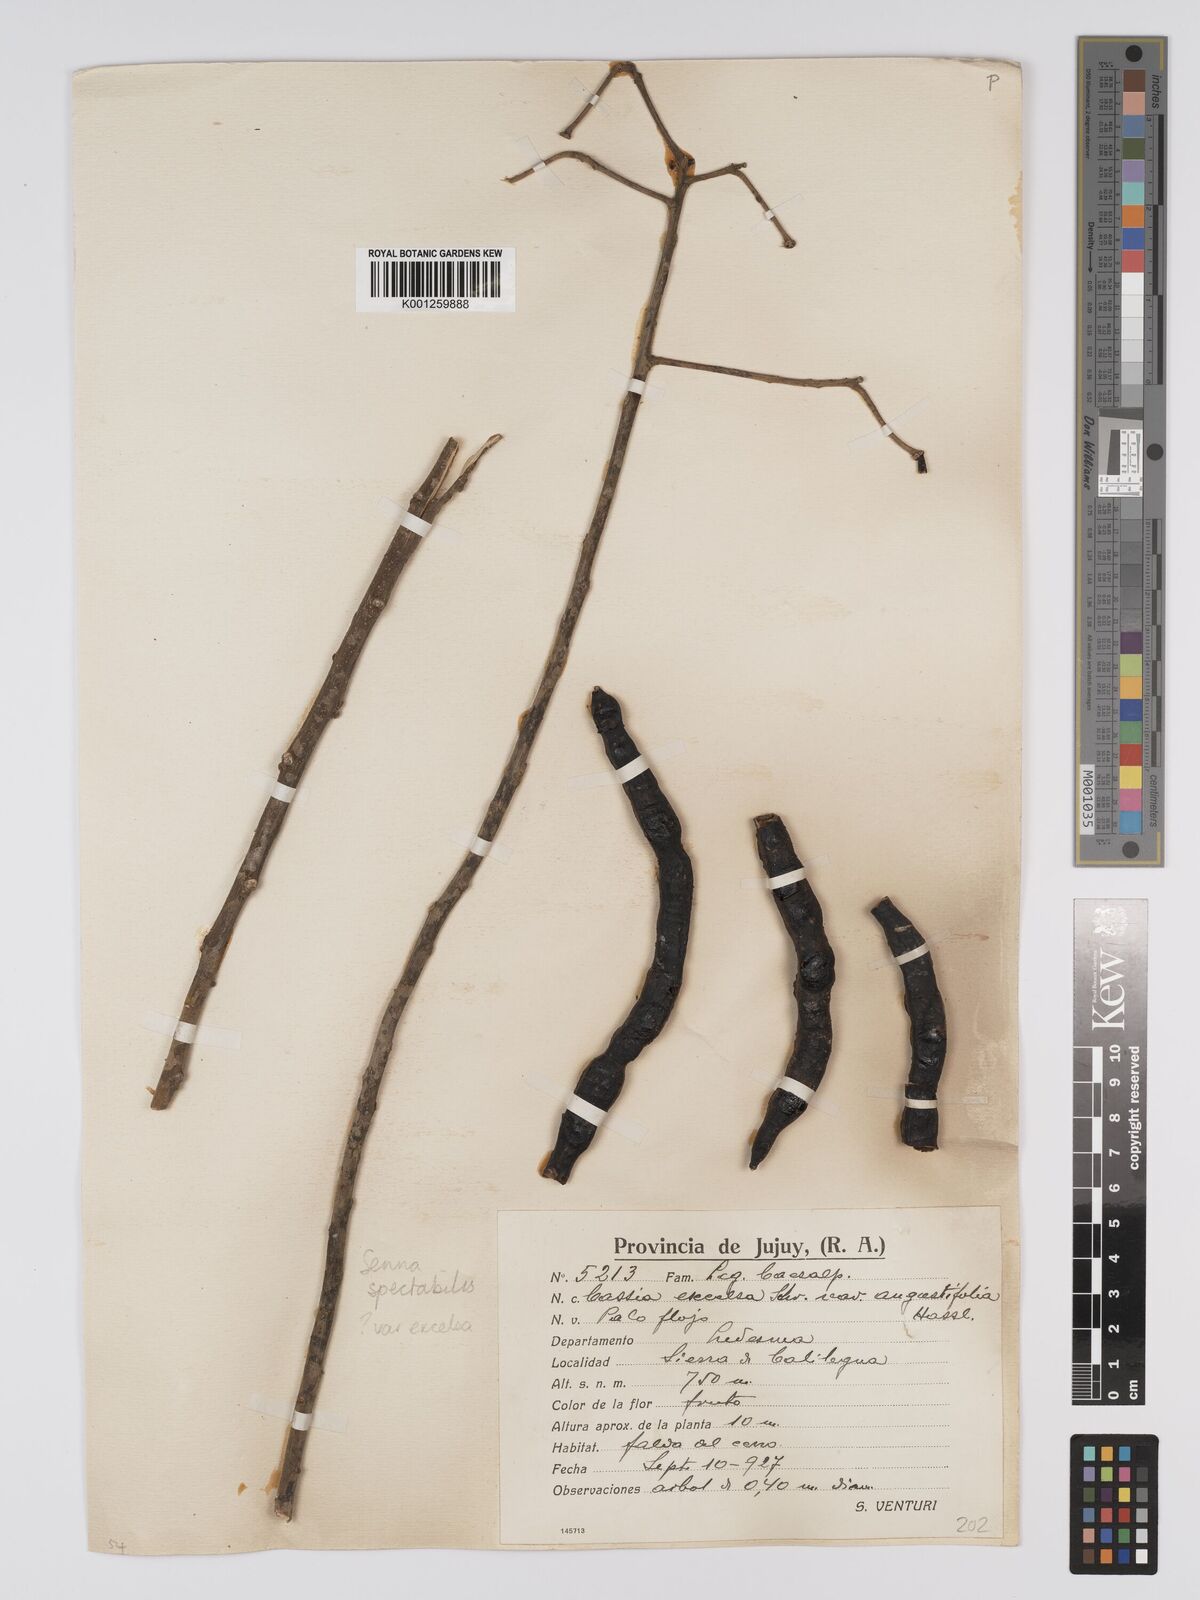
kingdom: Plantae
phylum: Tracheophyta
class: Magnoliopsida
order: Fabales
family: Fabaceae
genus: Senna
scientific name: Senna spectabilis
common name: Casia amarilla
